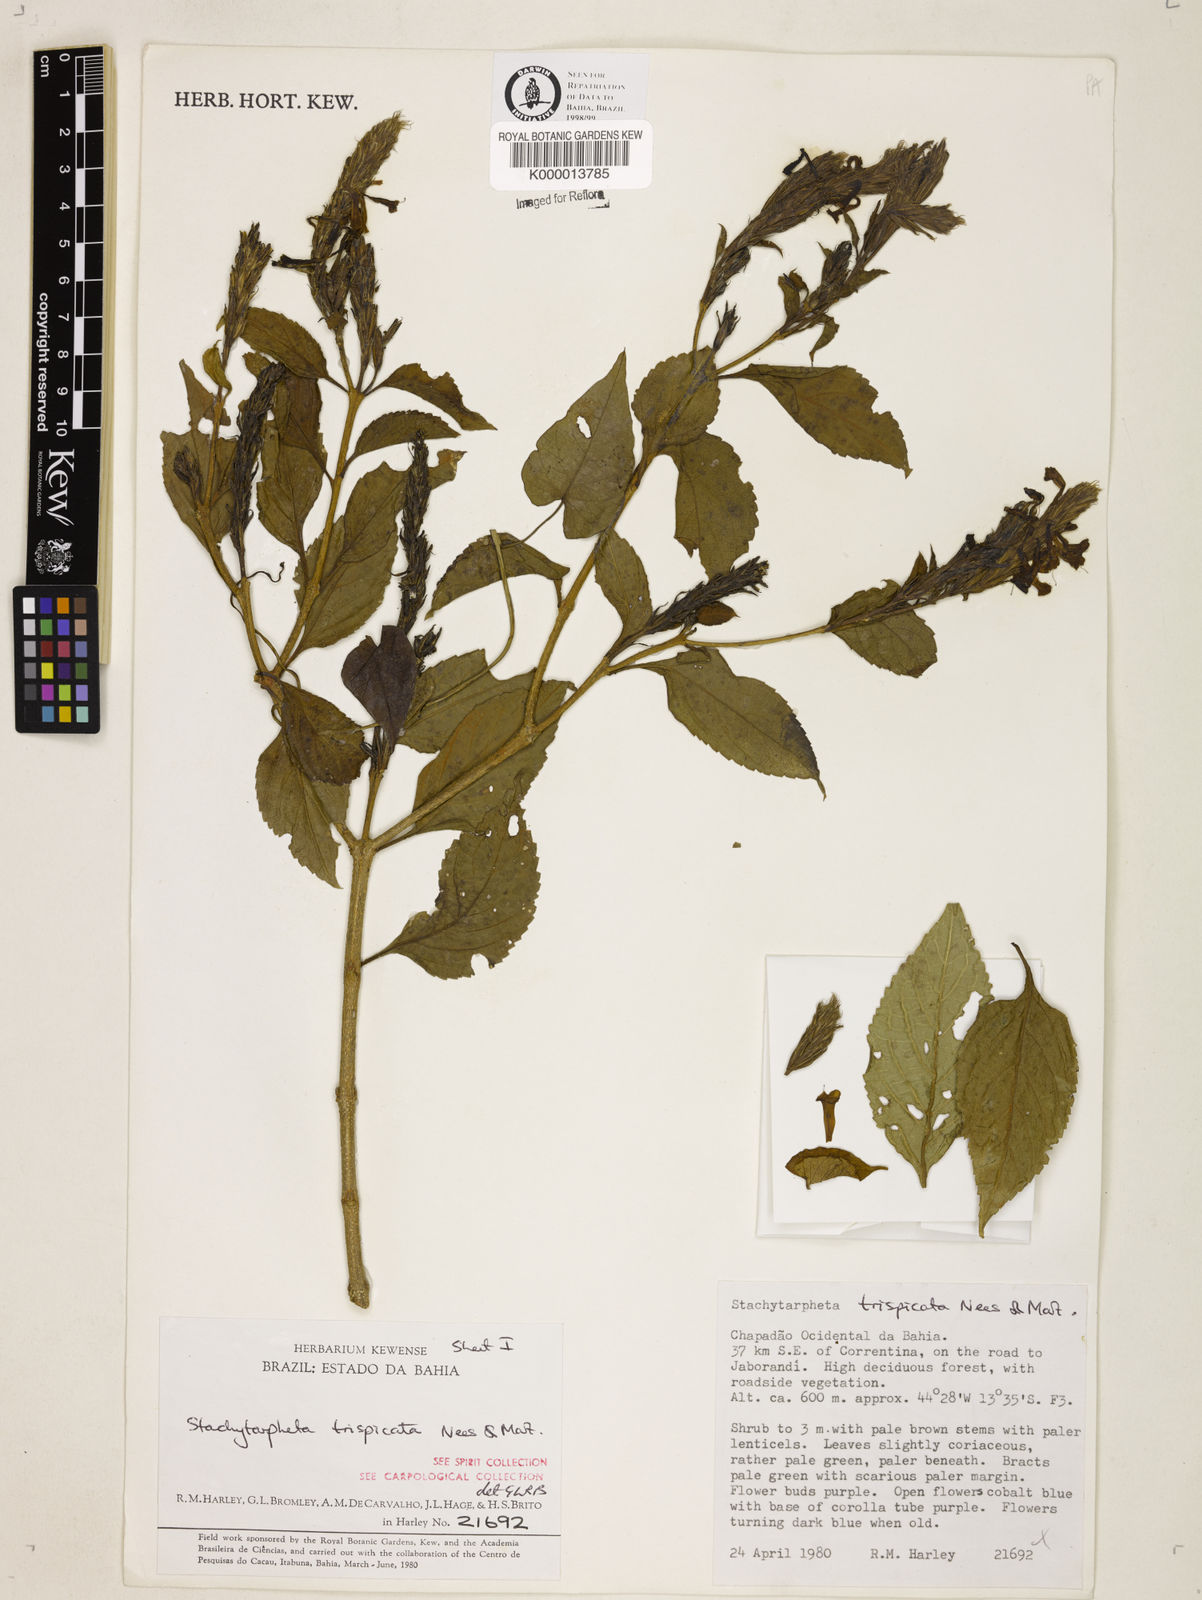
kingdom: Plantae
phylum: Tracheophyta
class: Magnoliopsida
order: Lamiales
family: Verbenaceae
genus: Stachytarpheta
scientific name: Stachytarpheta trispicata
